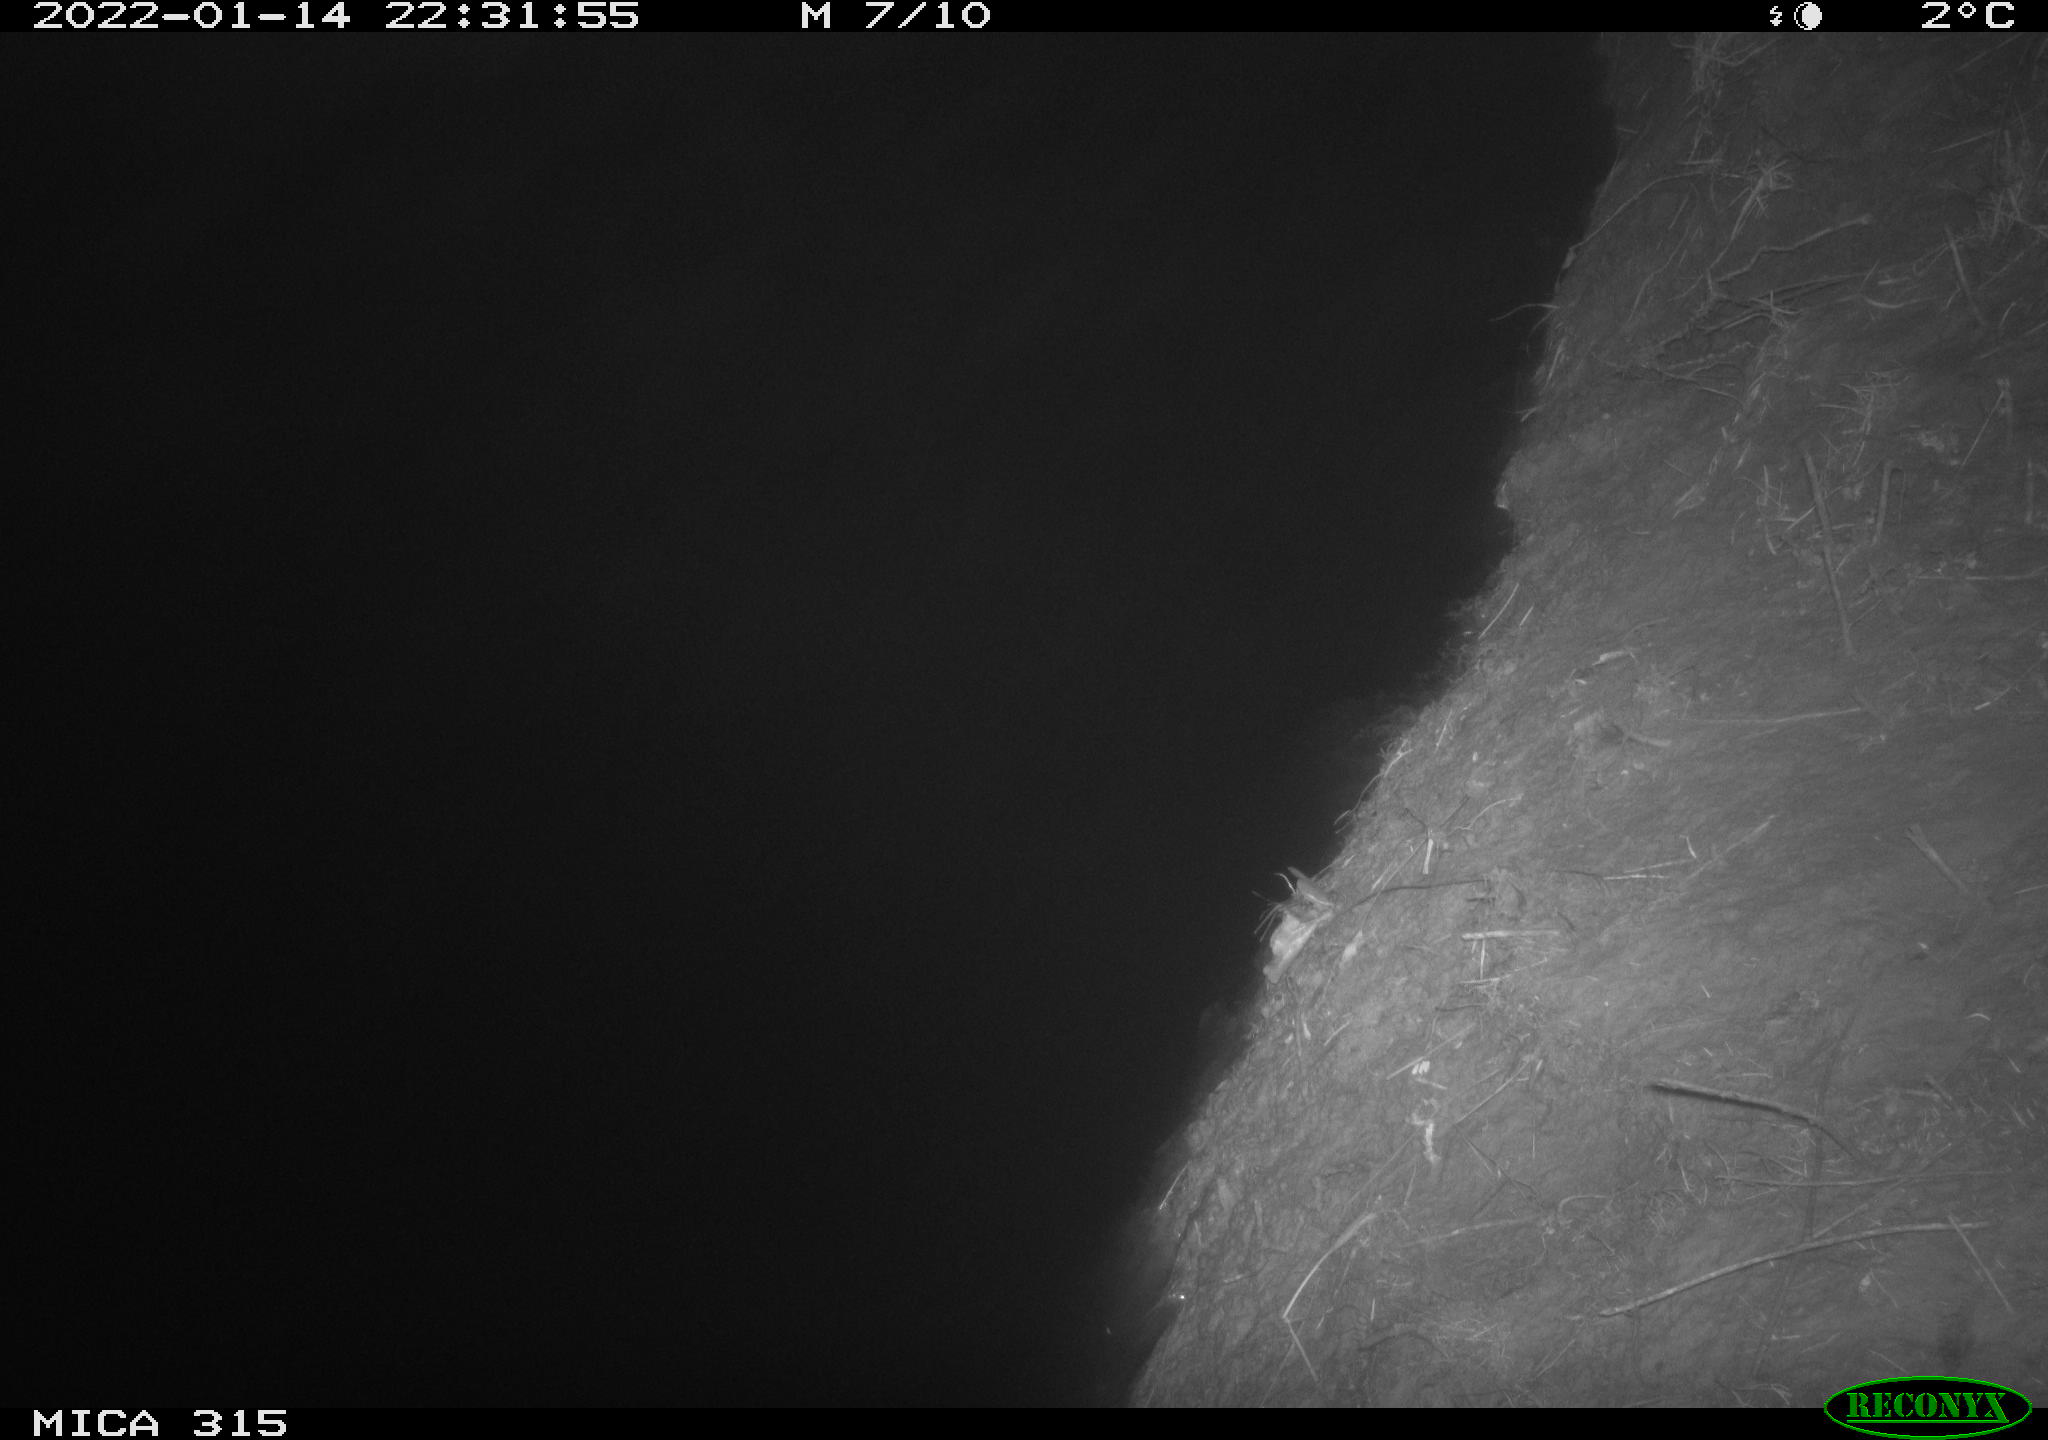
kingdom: Animalia
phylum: Chordata
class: Mammalia
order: Rodentia
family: Muridae
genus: Rattus
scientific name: Rattus norvegicus
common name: Brown rat
